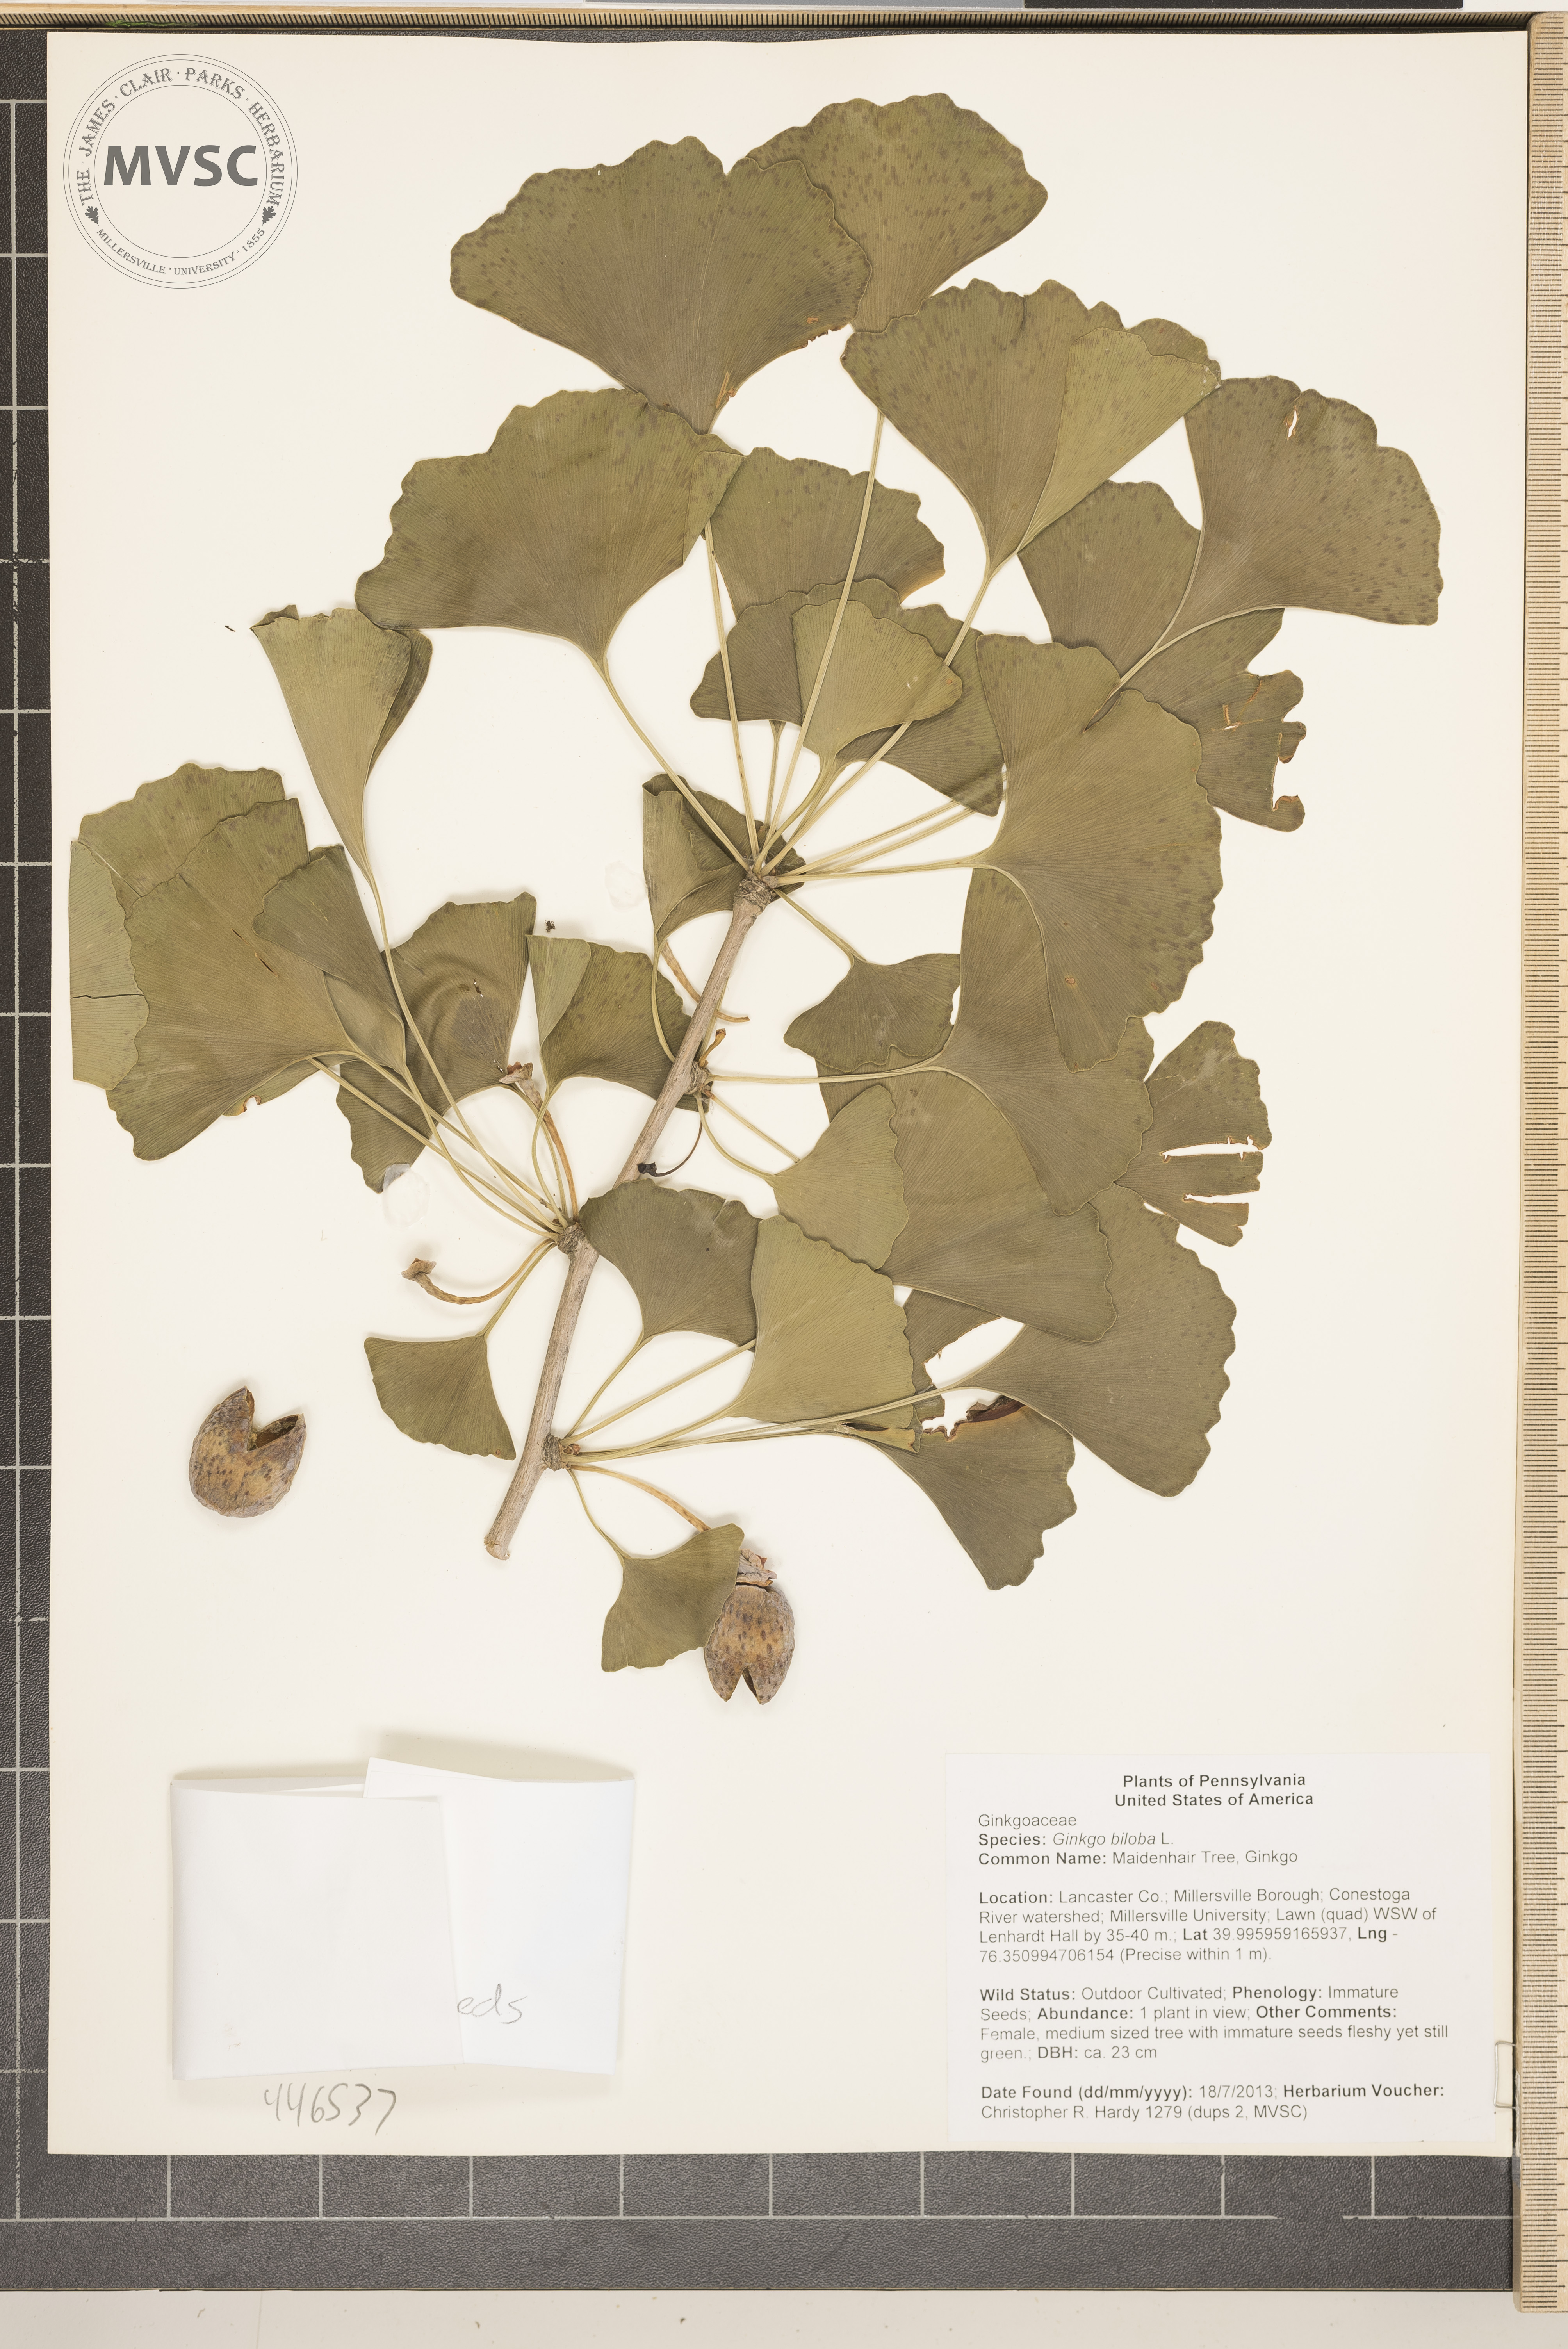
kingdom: Plantae
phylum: Tracheophyta
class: Ginkgoopsida
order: Ginkgoales
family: Ginkgoaceae
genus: Ginkgo
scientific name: Ginkgo biloba
